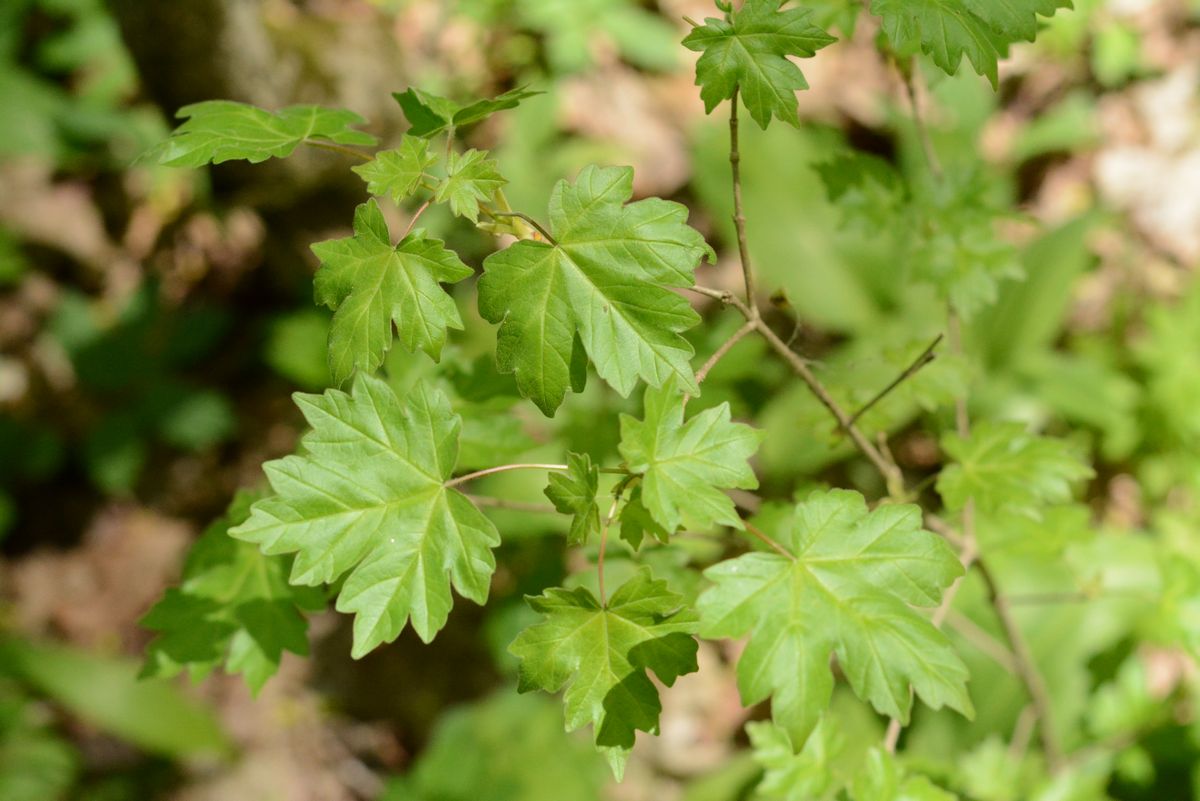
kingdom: Plantae
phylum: Tracheophyta
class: Magnoliopsida
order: Sapindales
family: Sapindaceae
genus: Acer
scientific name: Acer campestre
